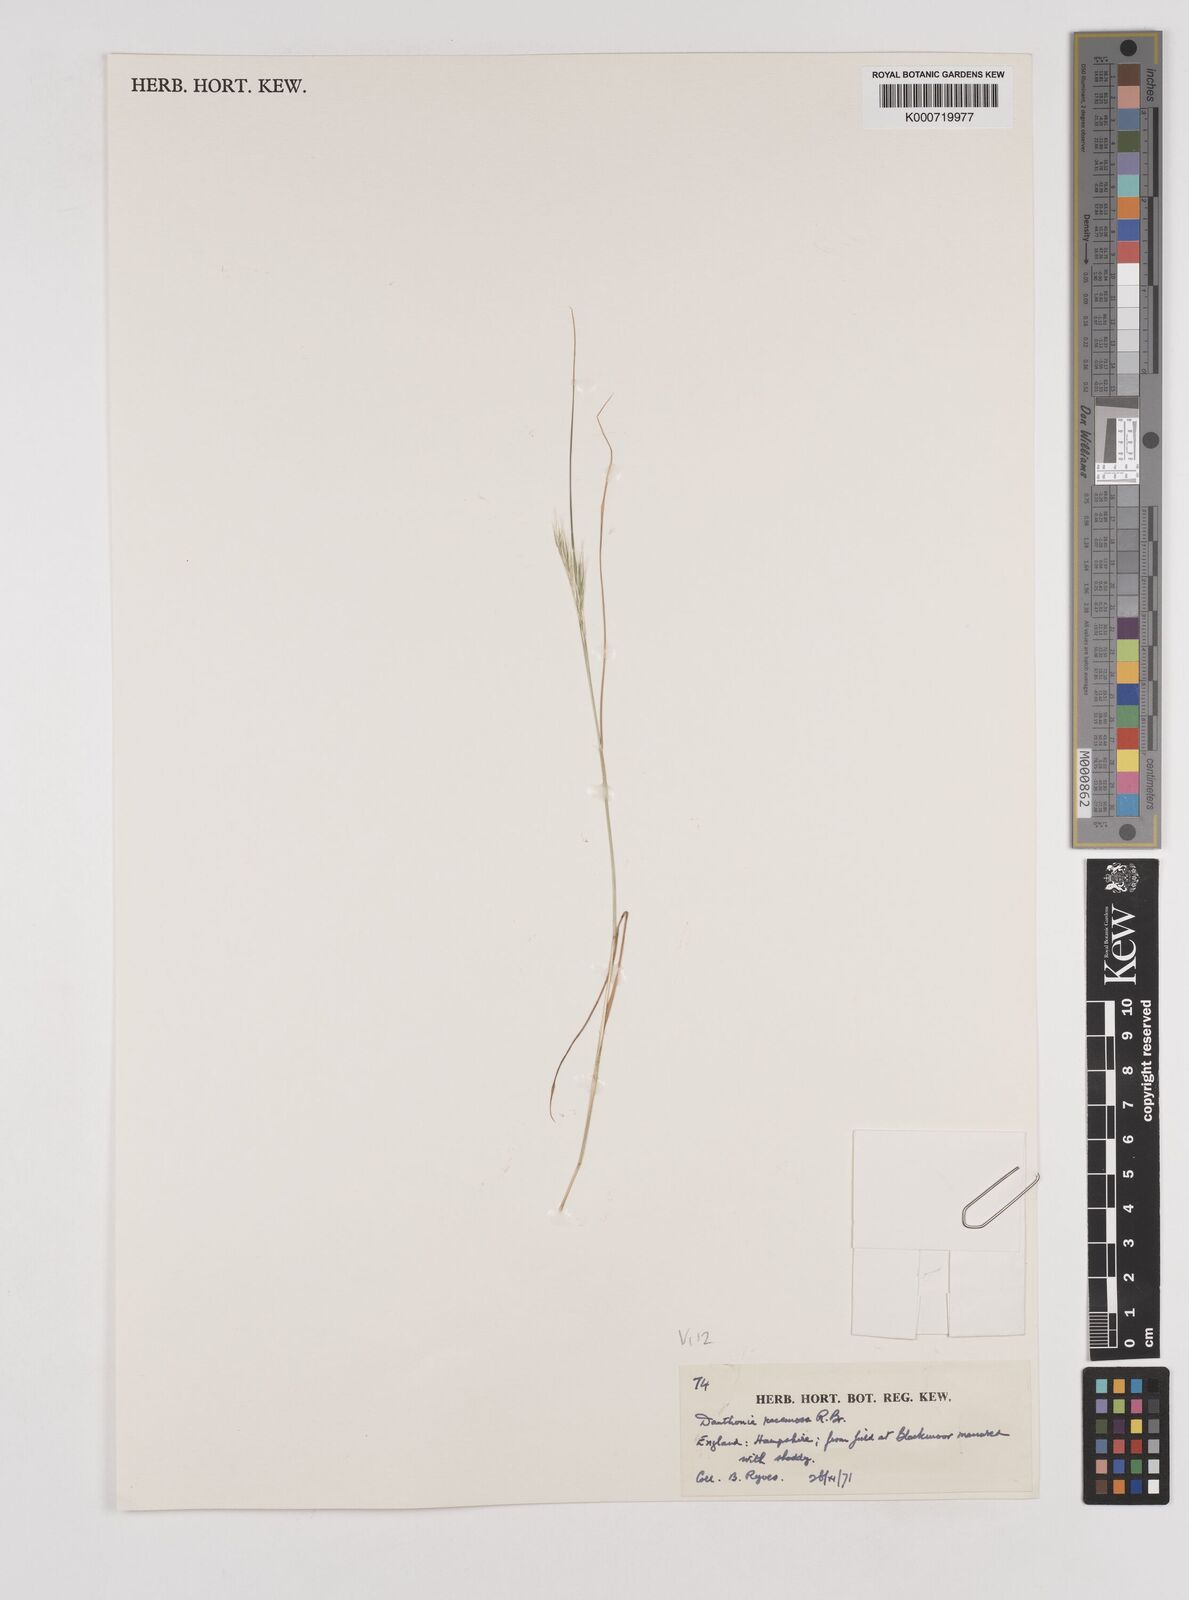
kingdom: Plantae
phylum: Tracheophyta
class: Liliopsida
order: Poales
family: Poaceae
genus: Rytidosperma
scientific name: Rytidosperma racemosum
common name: Wallaby-grass
